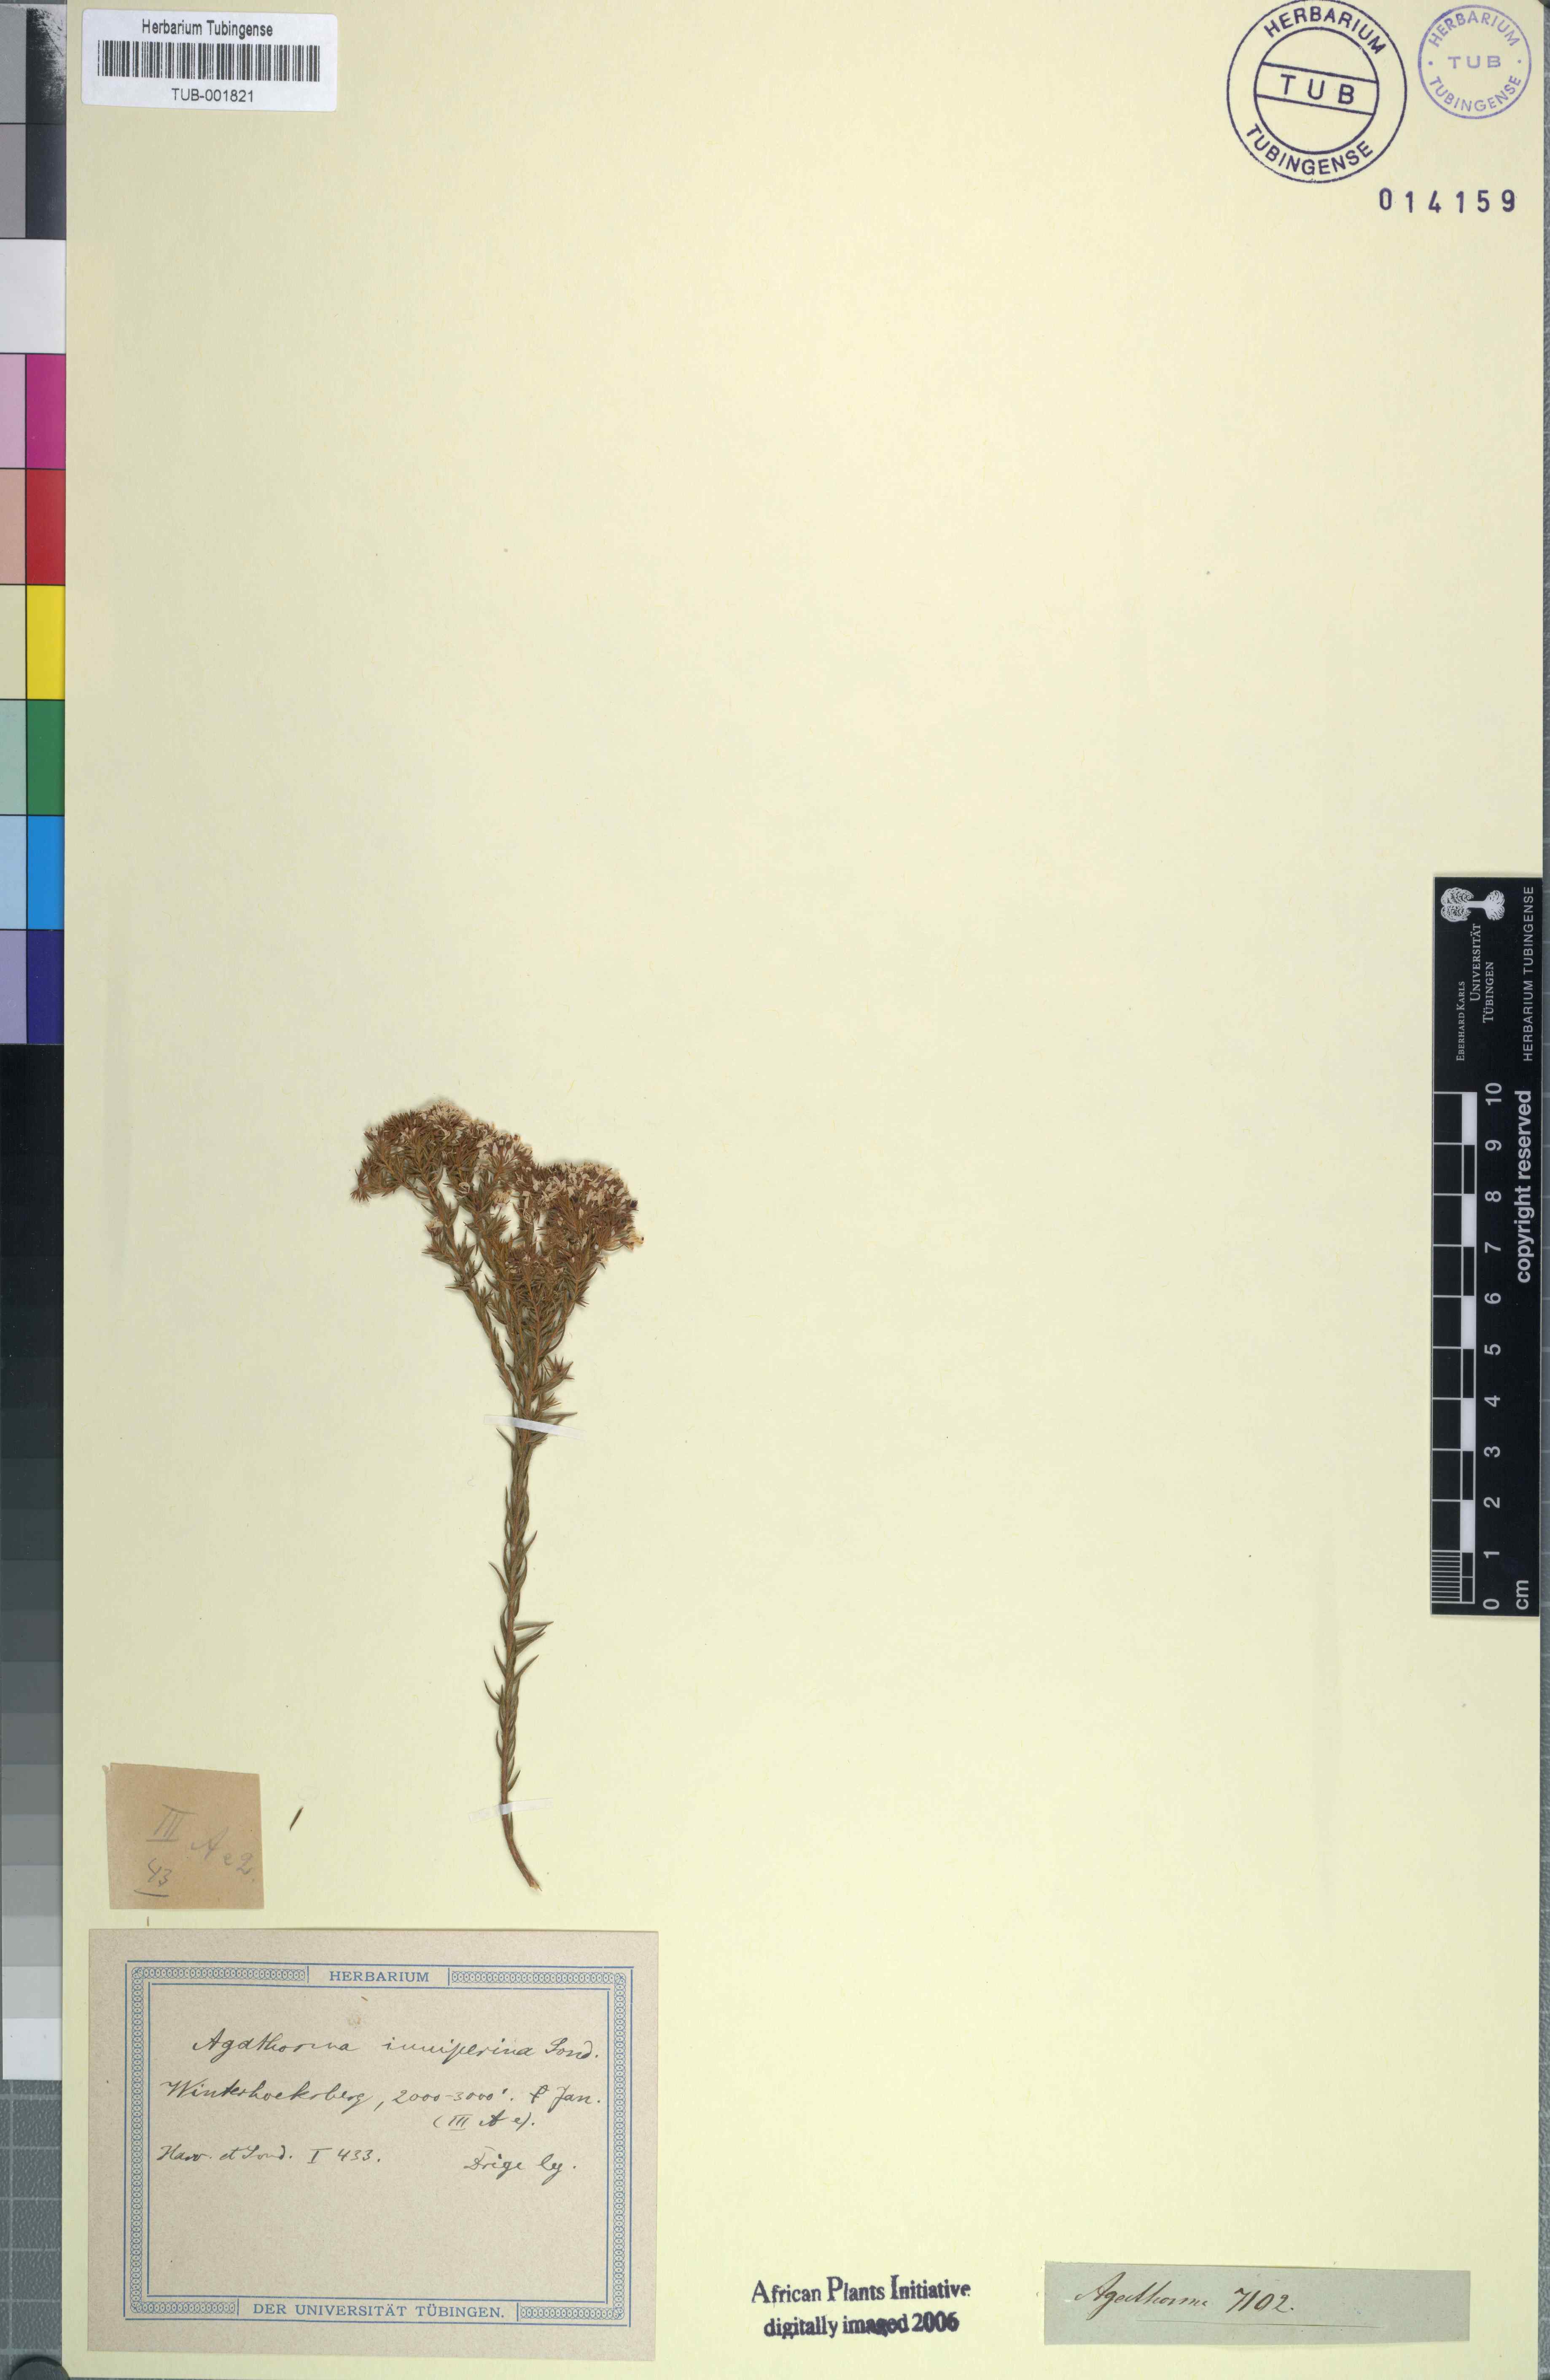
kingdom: Plantae
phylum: Tracheophyta
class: Magnoliopsida
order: Sapindales
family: Rutaceae
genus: Agathosma
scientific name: Agathosma capensis
